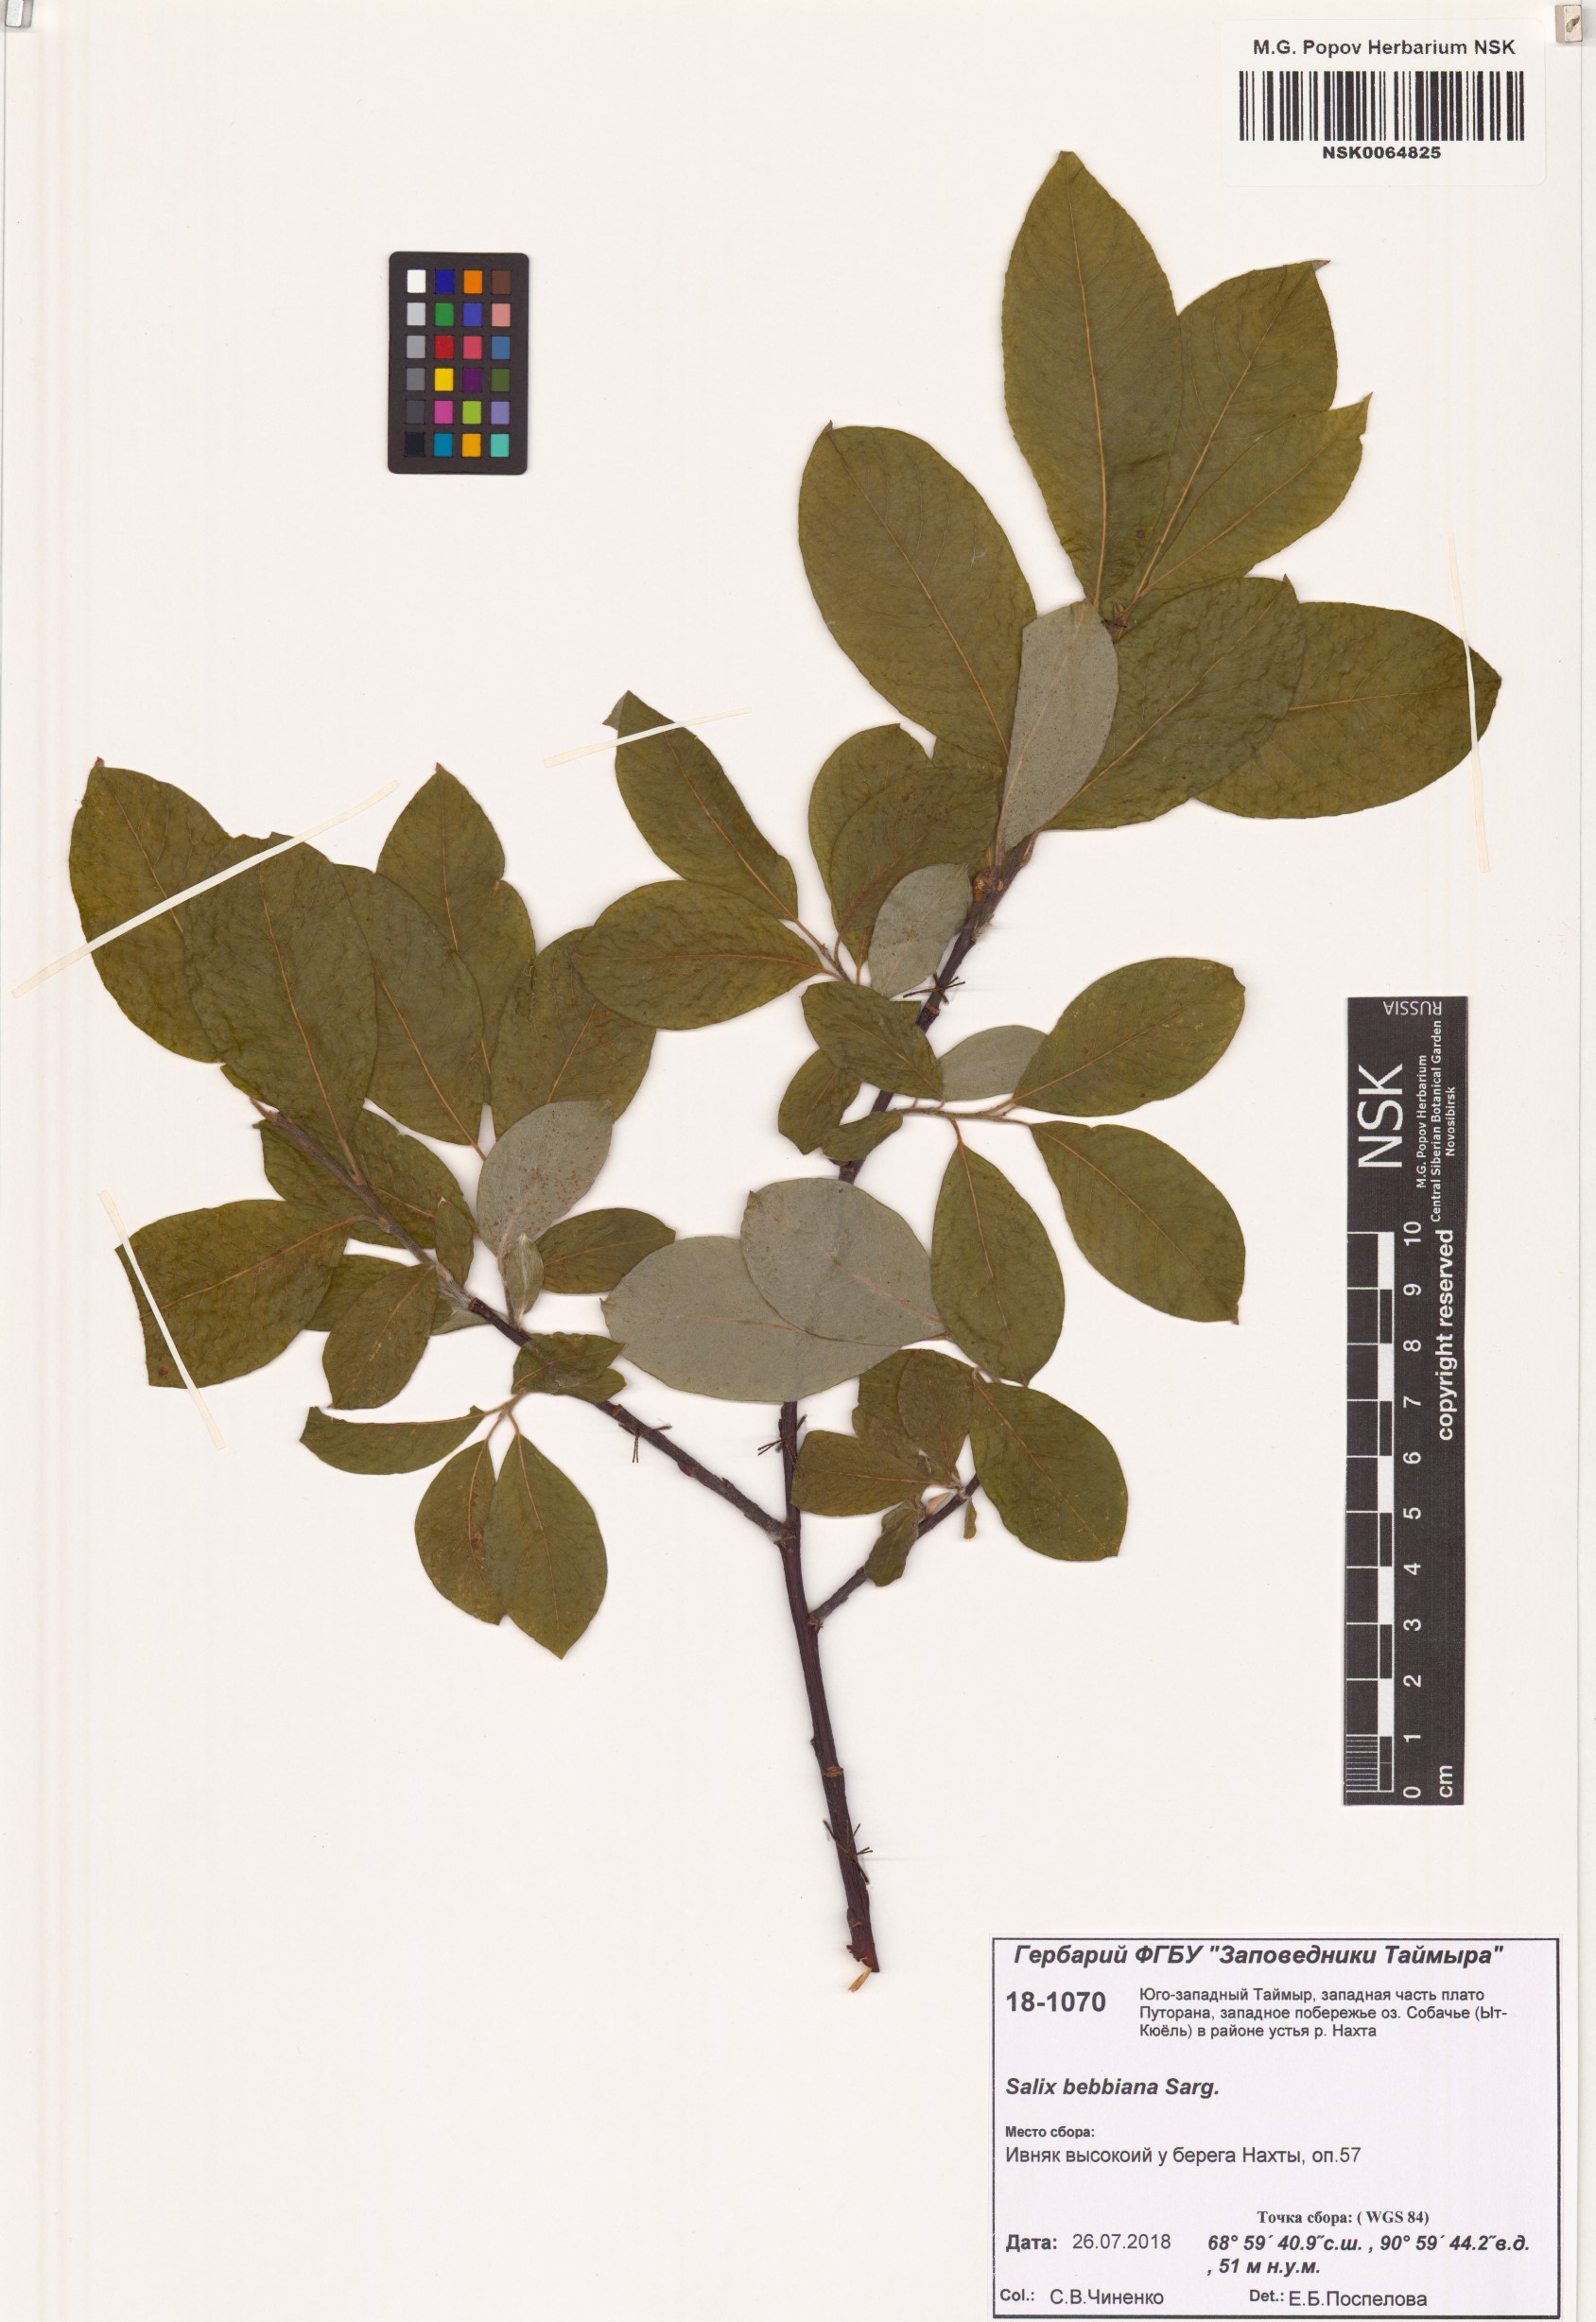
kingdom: Plantae
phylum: Tracheophyta
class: Magnoliopsida
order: Malpighiales
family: Salicaceae
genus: Salix
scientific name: Salix bebbiana
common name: Bebb's willow
